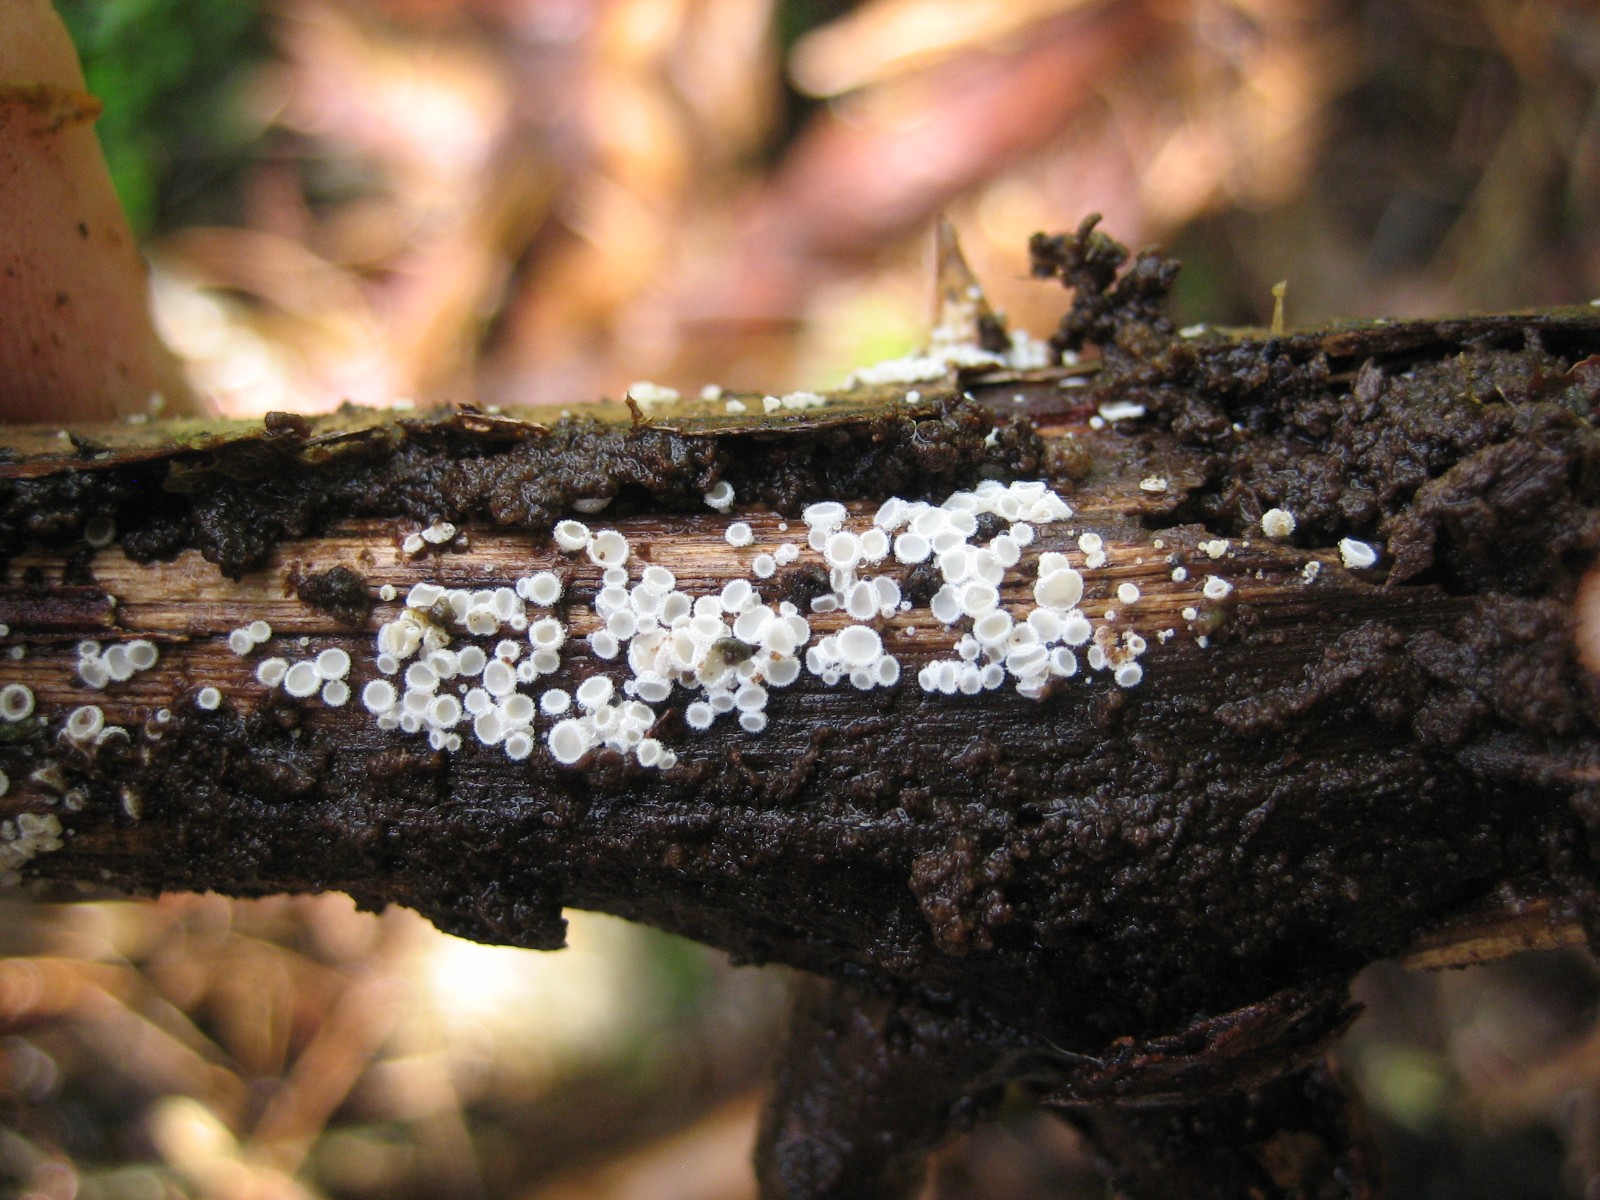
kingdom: Fungi
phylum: Ascomycota
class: Leotiomycetes
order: Helotiales
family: Lachnaceae
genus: Lachnum
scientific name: Lachnum
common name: frynseskive
